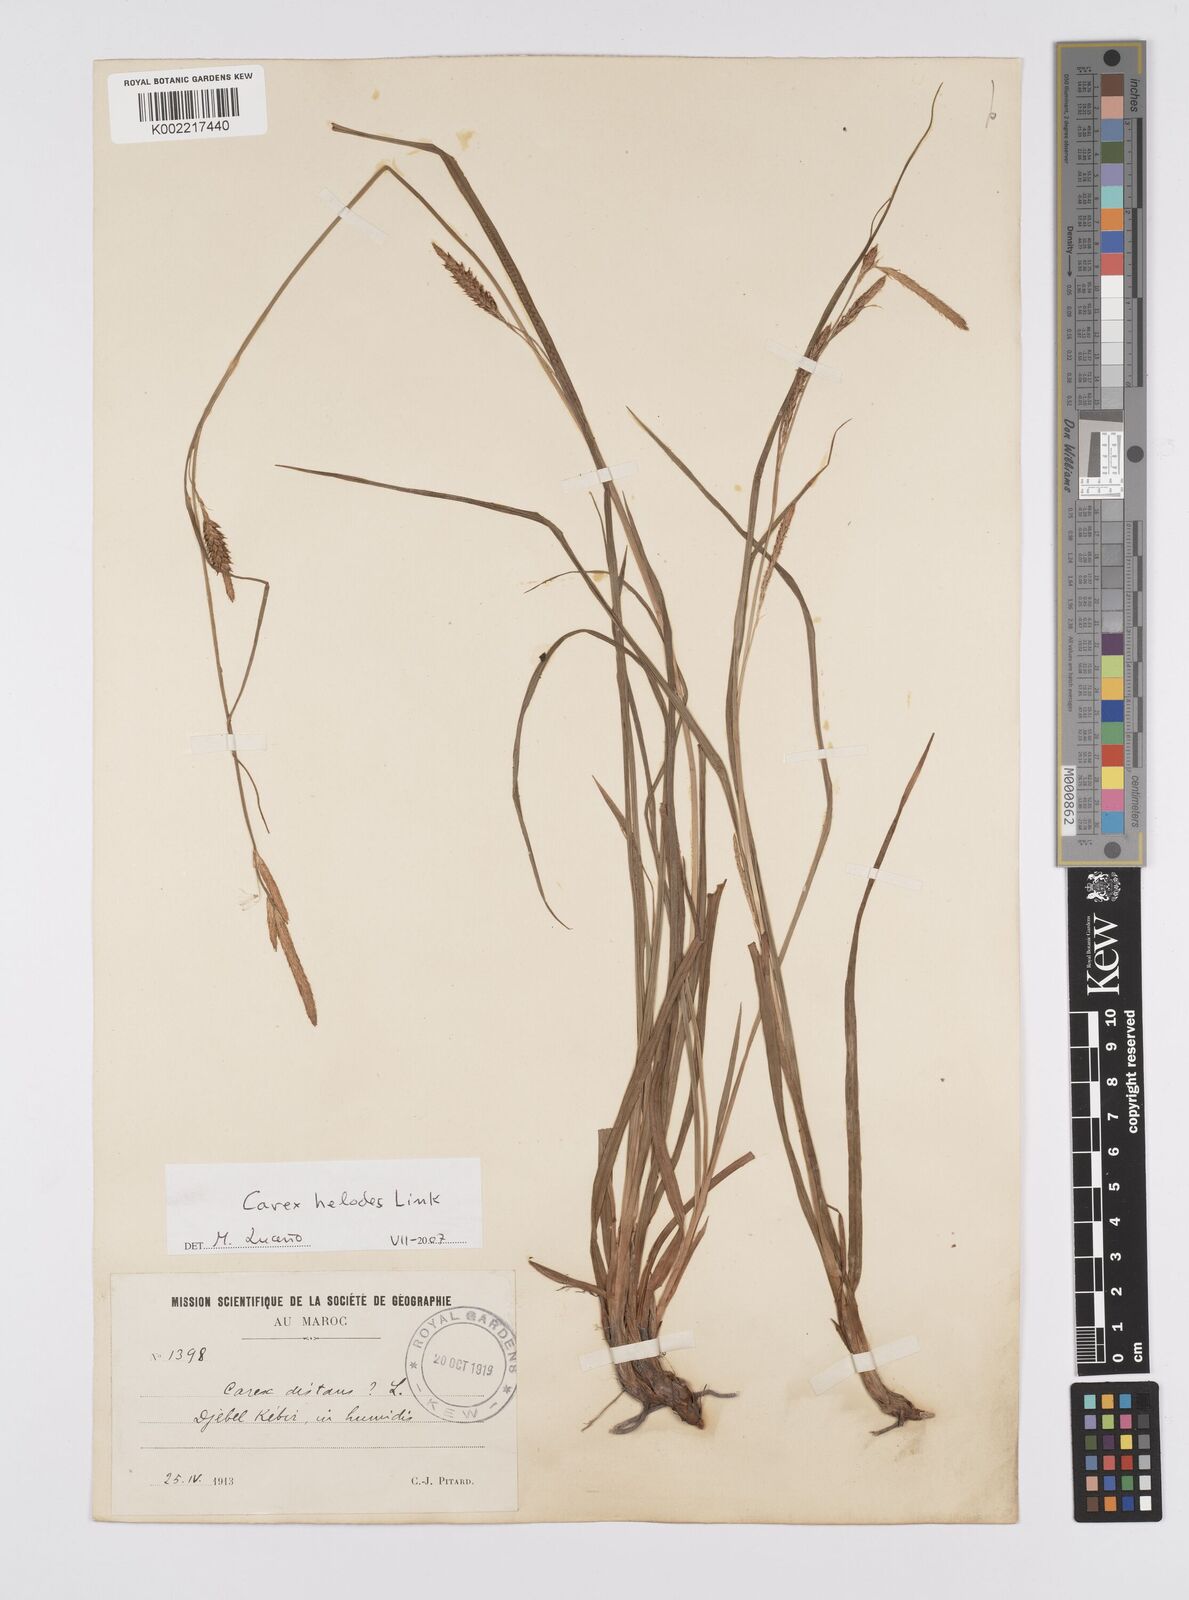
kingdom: Plantae
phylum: Tracheophyta
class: Liliopsida
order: Poales
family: Cyperaceae
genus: Carex
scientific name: Carex helodes
